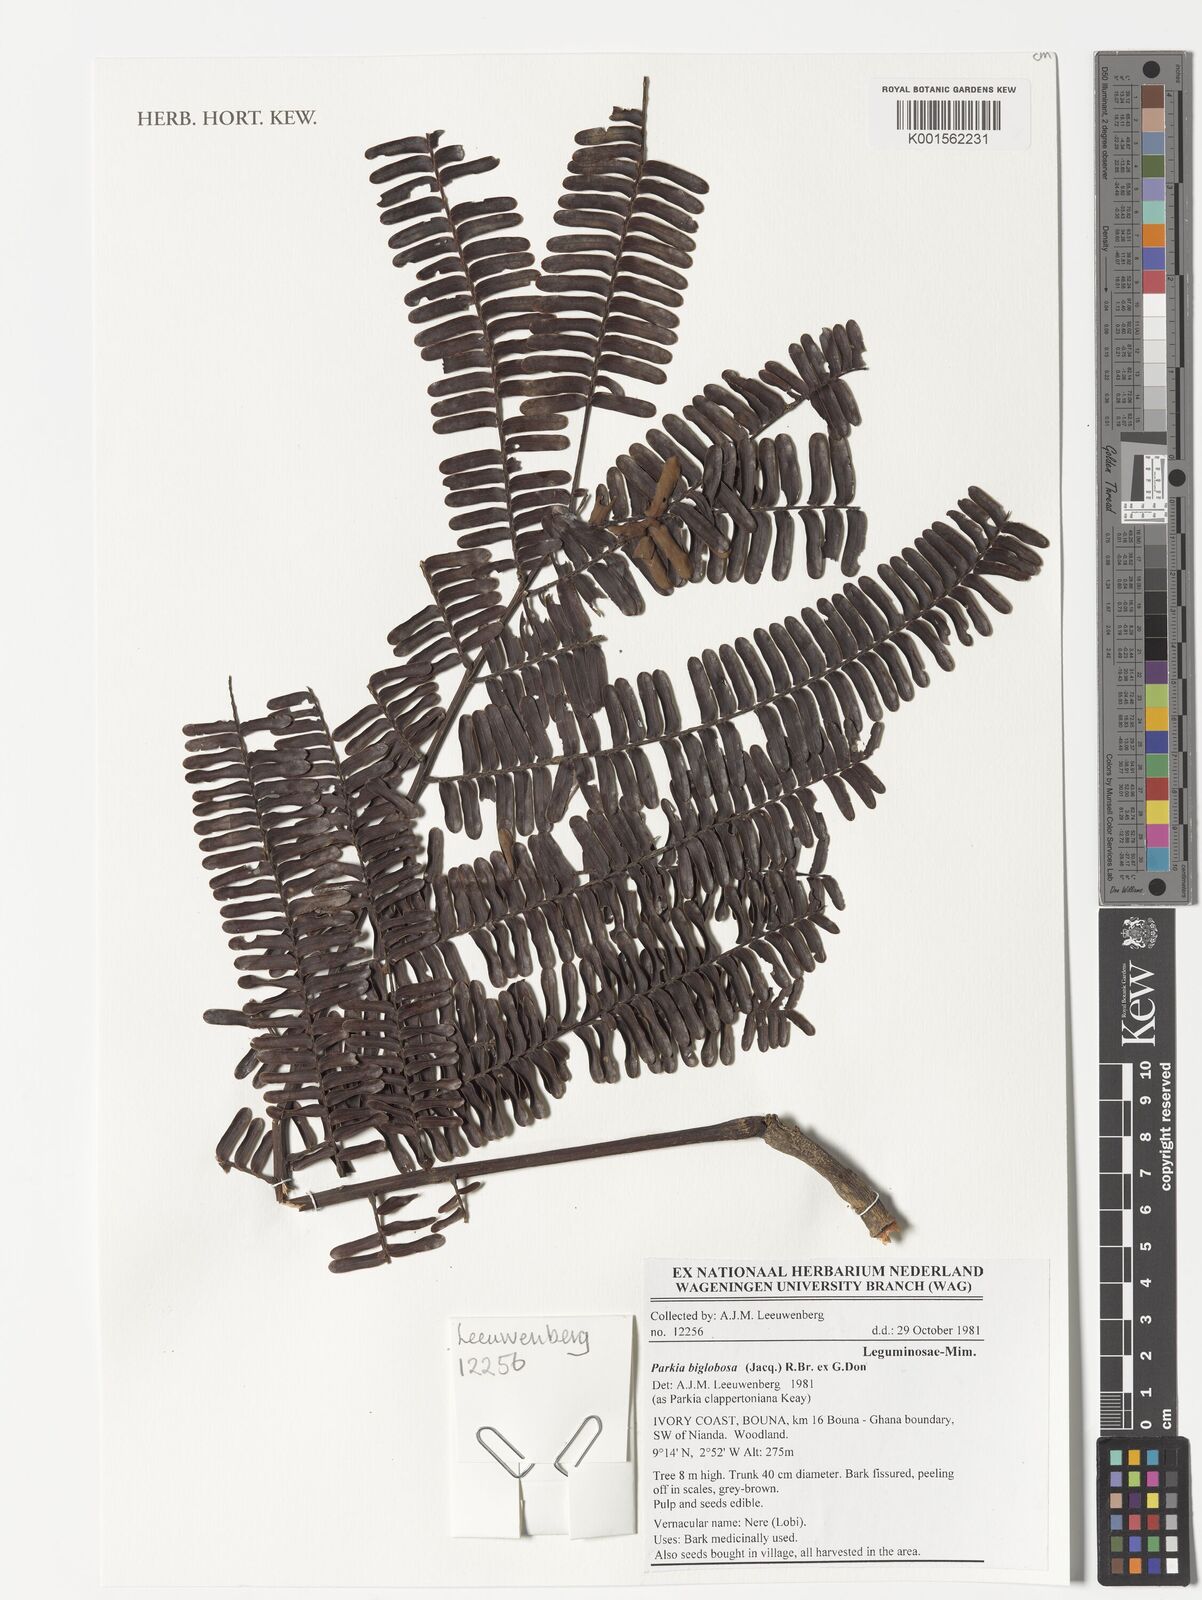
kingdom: Plantae
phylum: Tracheophyta
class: Magnoliopsida
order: Fabales
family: Fabaceae
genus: Parkia
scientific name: Parkia biglobosa
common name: African locust-bean
